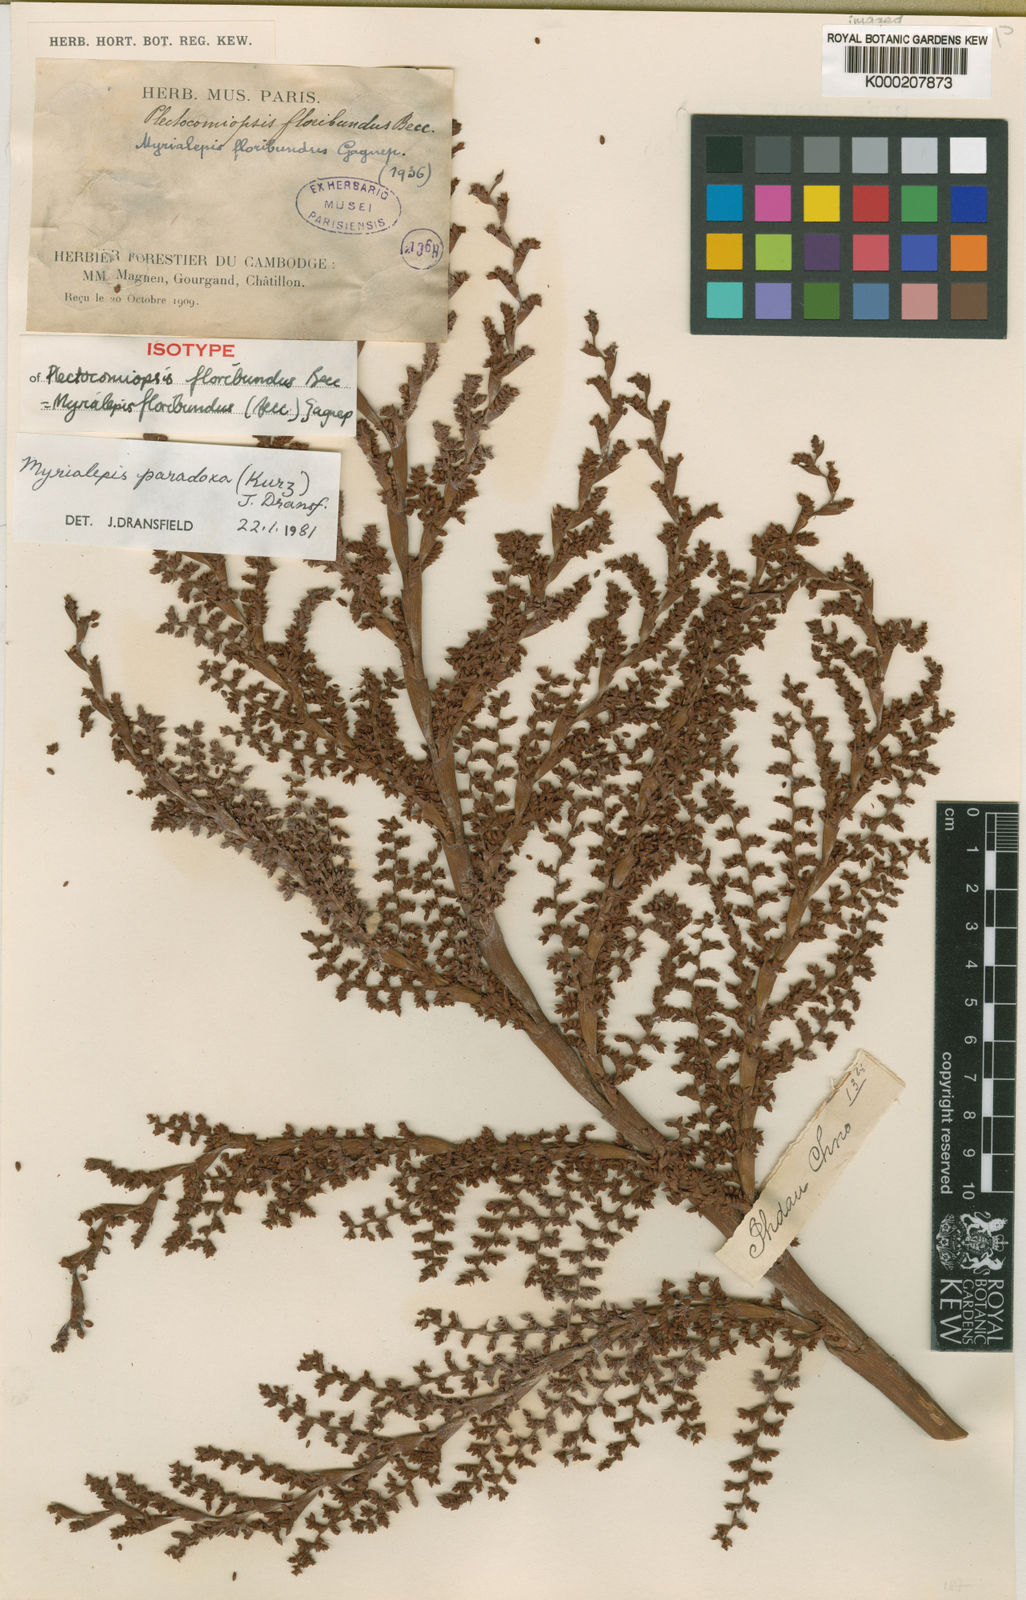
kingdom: Plantae
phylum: Tracheophyta
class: Liliopsida
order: Arecales
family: Arecaceae
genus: Myrialepis
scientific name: Myrialepis paradoxa
